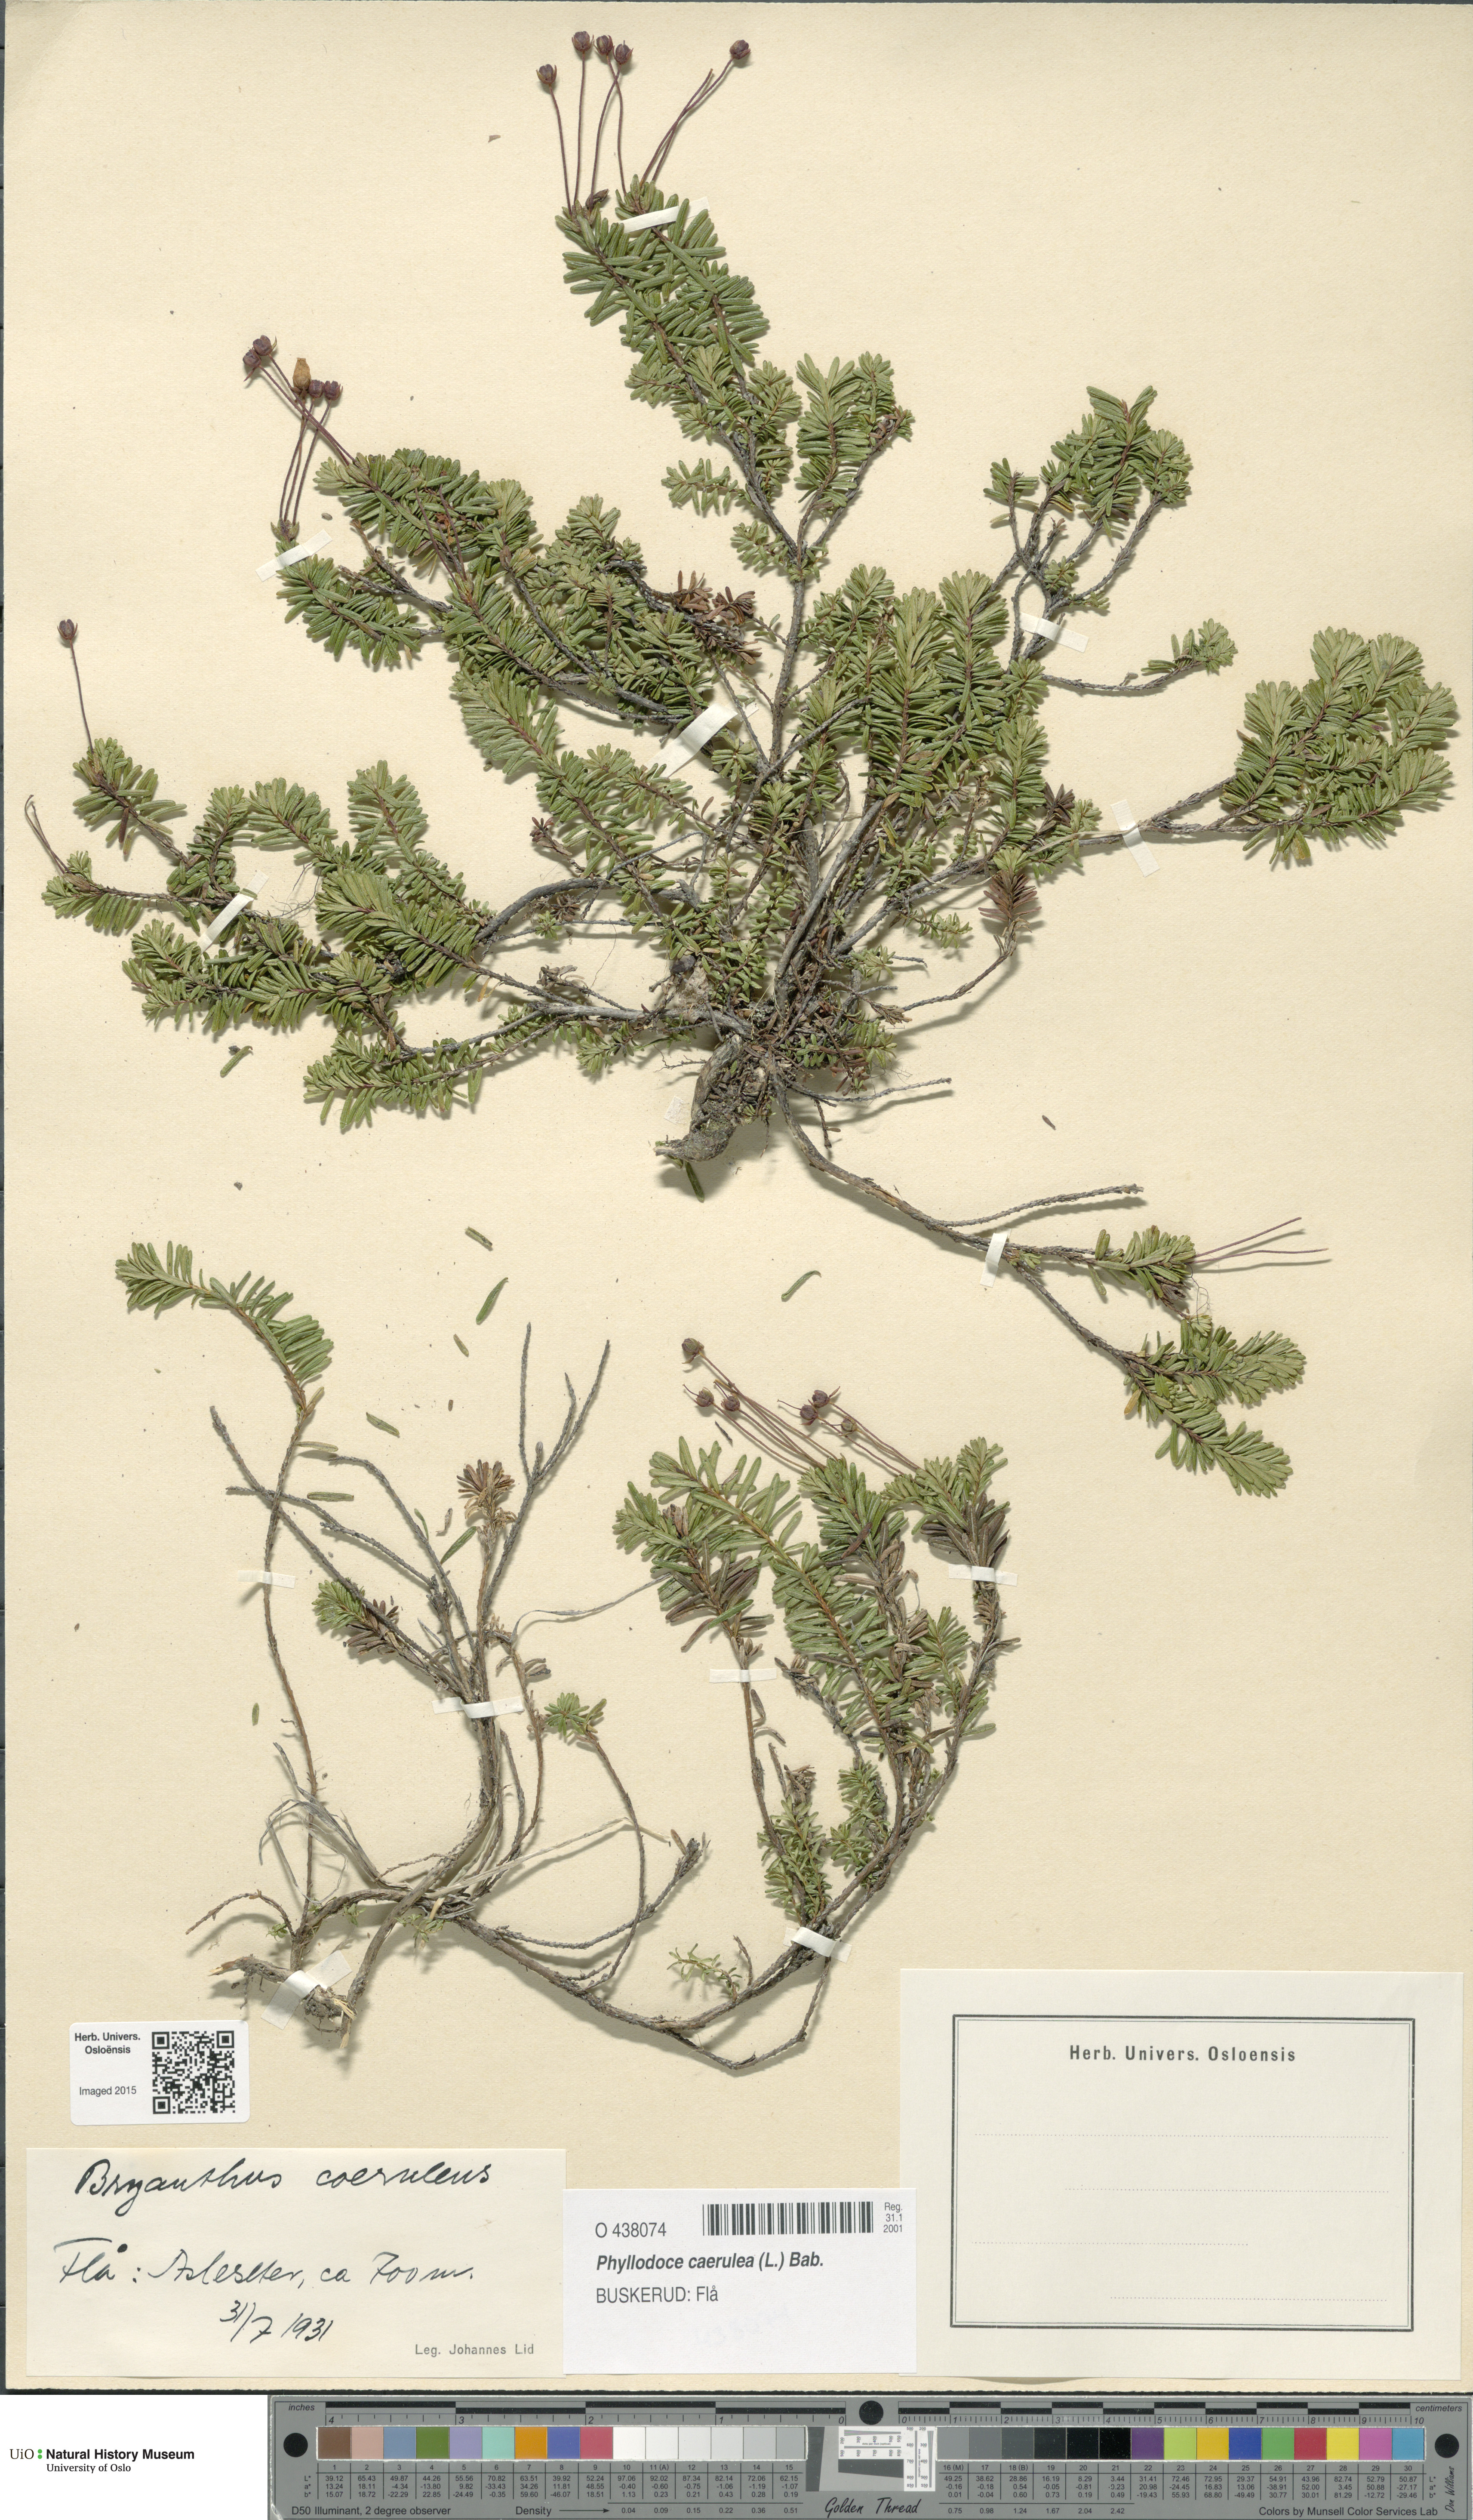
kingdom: Plantae
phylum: Tracheophyta
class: Magnoliopsida
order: Ericales
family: Ericaceae
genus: Phyllodoce
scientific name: Phyllodoce caerulea
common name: Blue heath
